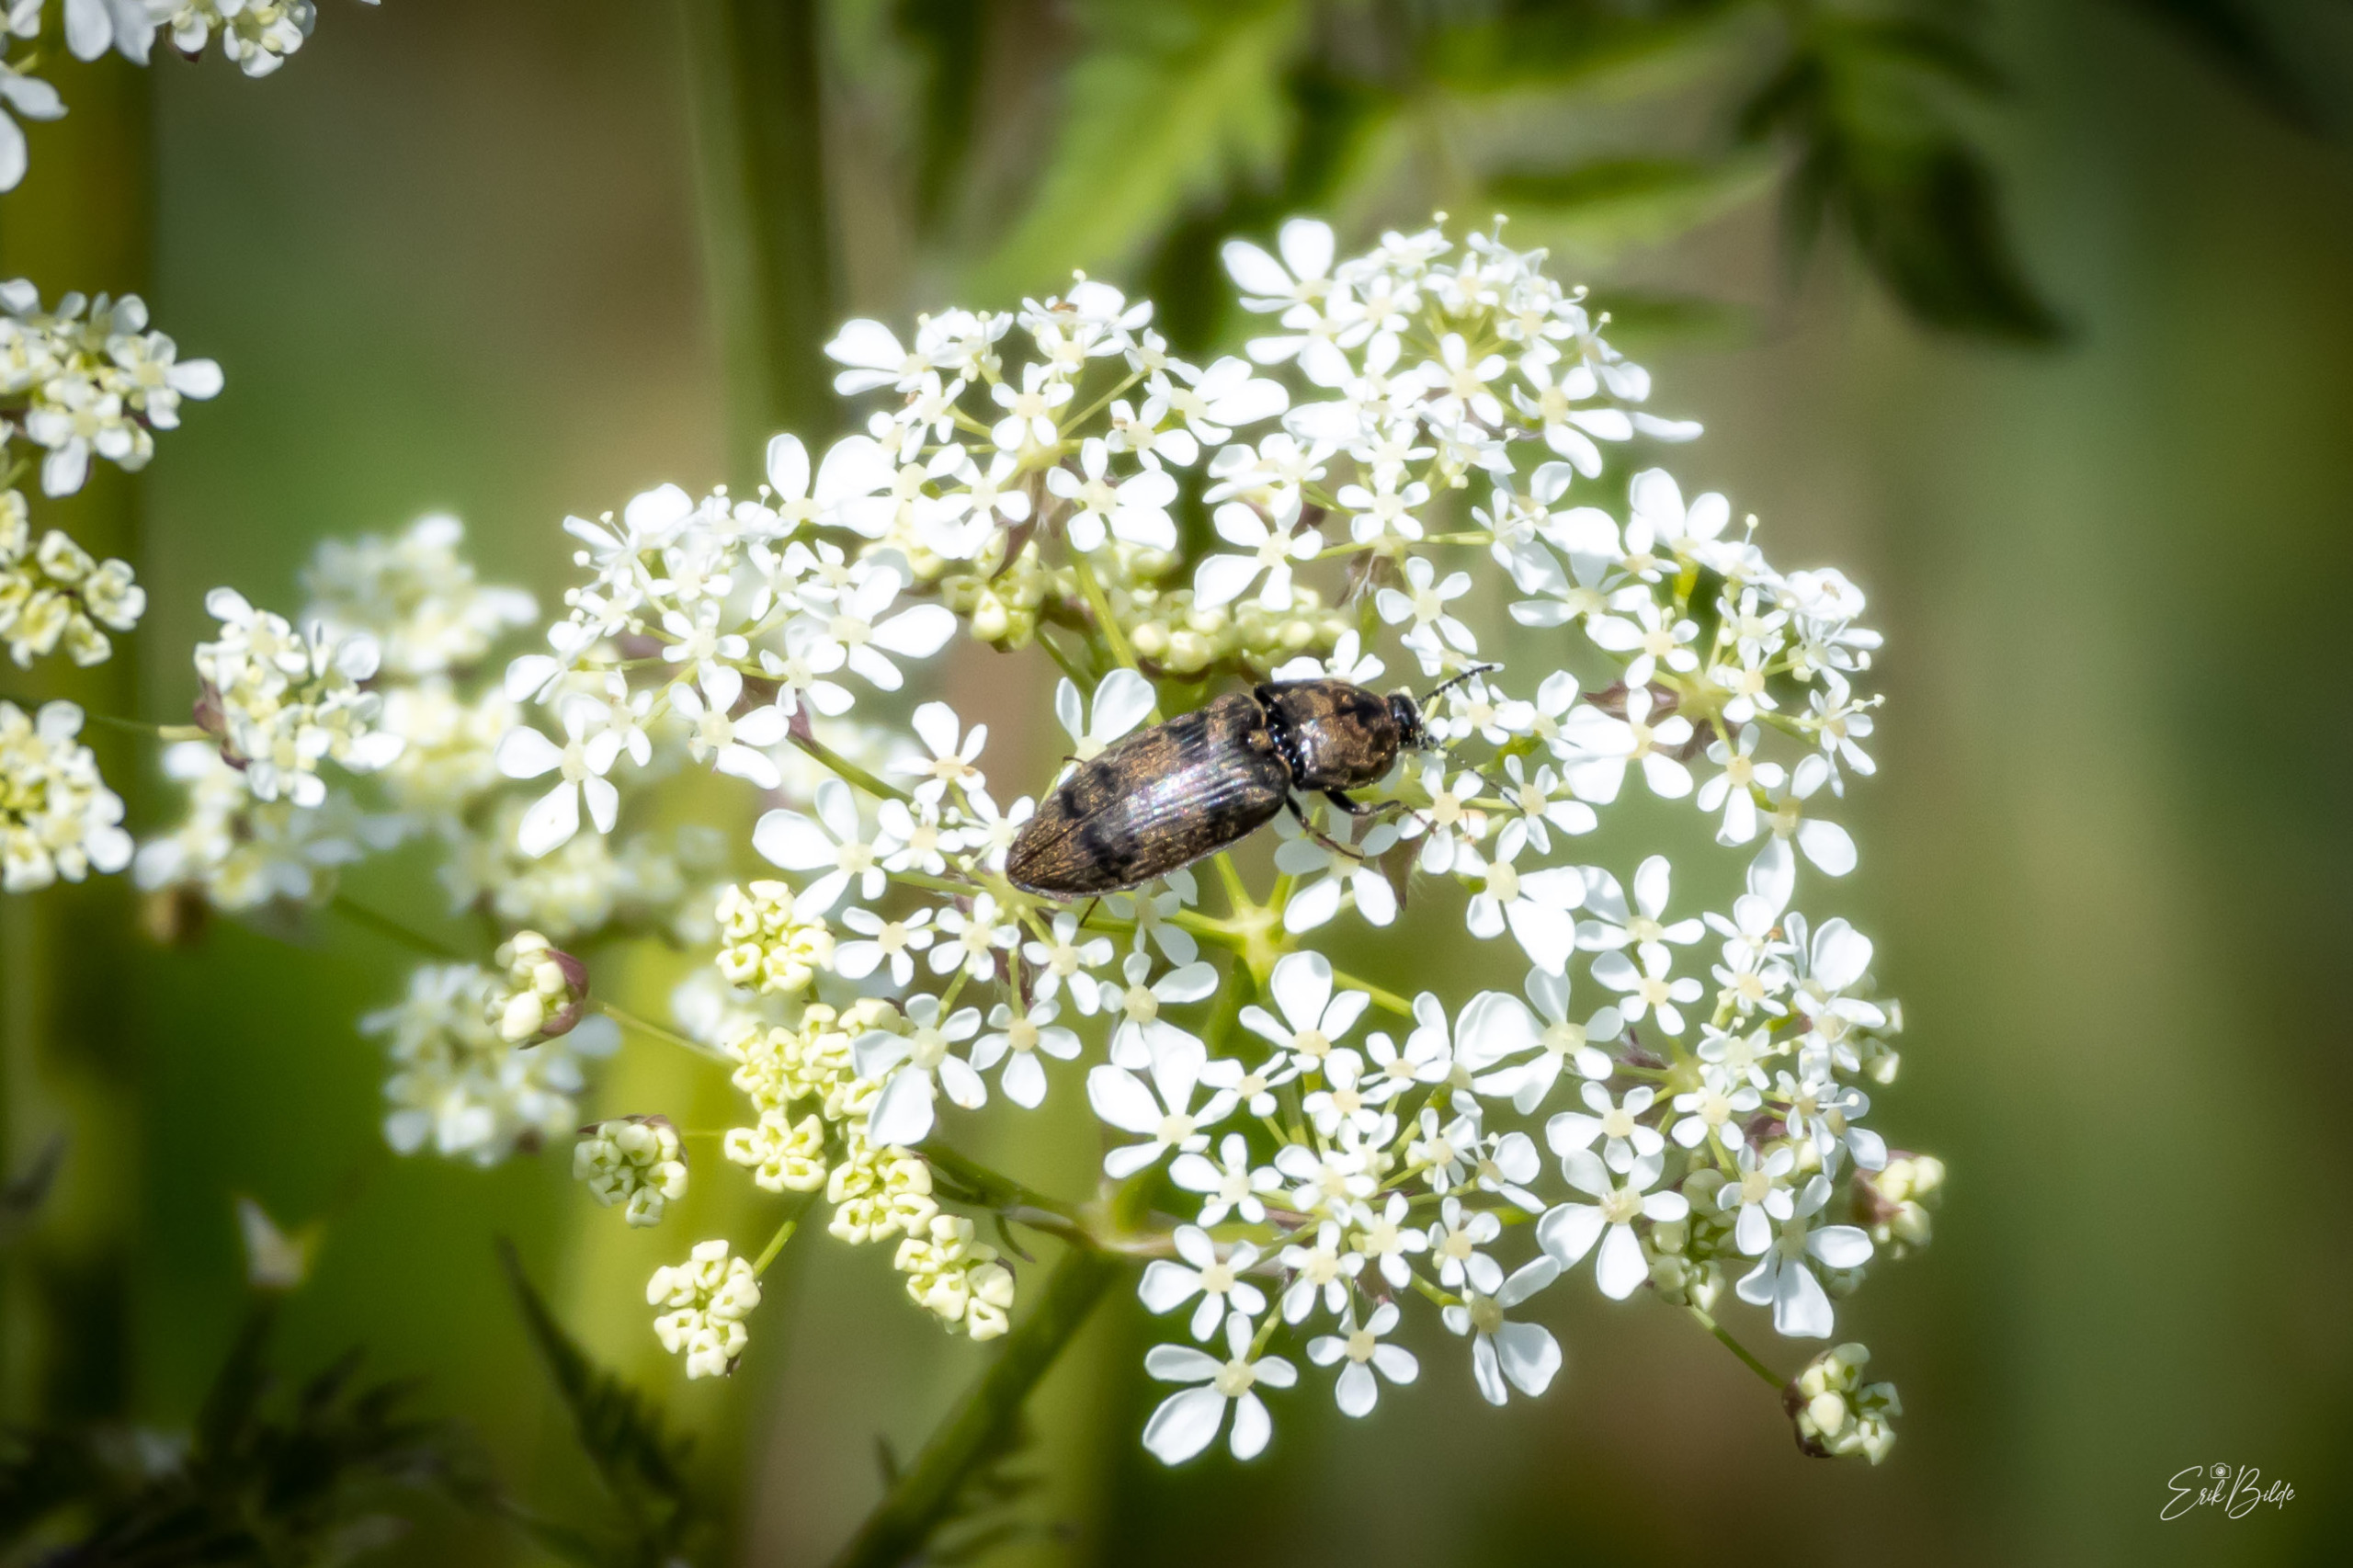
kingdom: Animalia
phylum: Arthropoda
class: Insecta
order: Coleoptera
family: Elateridae
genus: Prosternon
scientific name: Prosternon tessellatum
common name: Silkeglinsende jordsmælder
